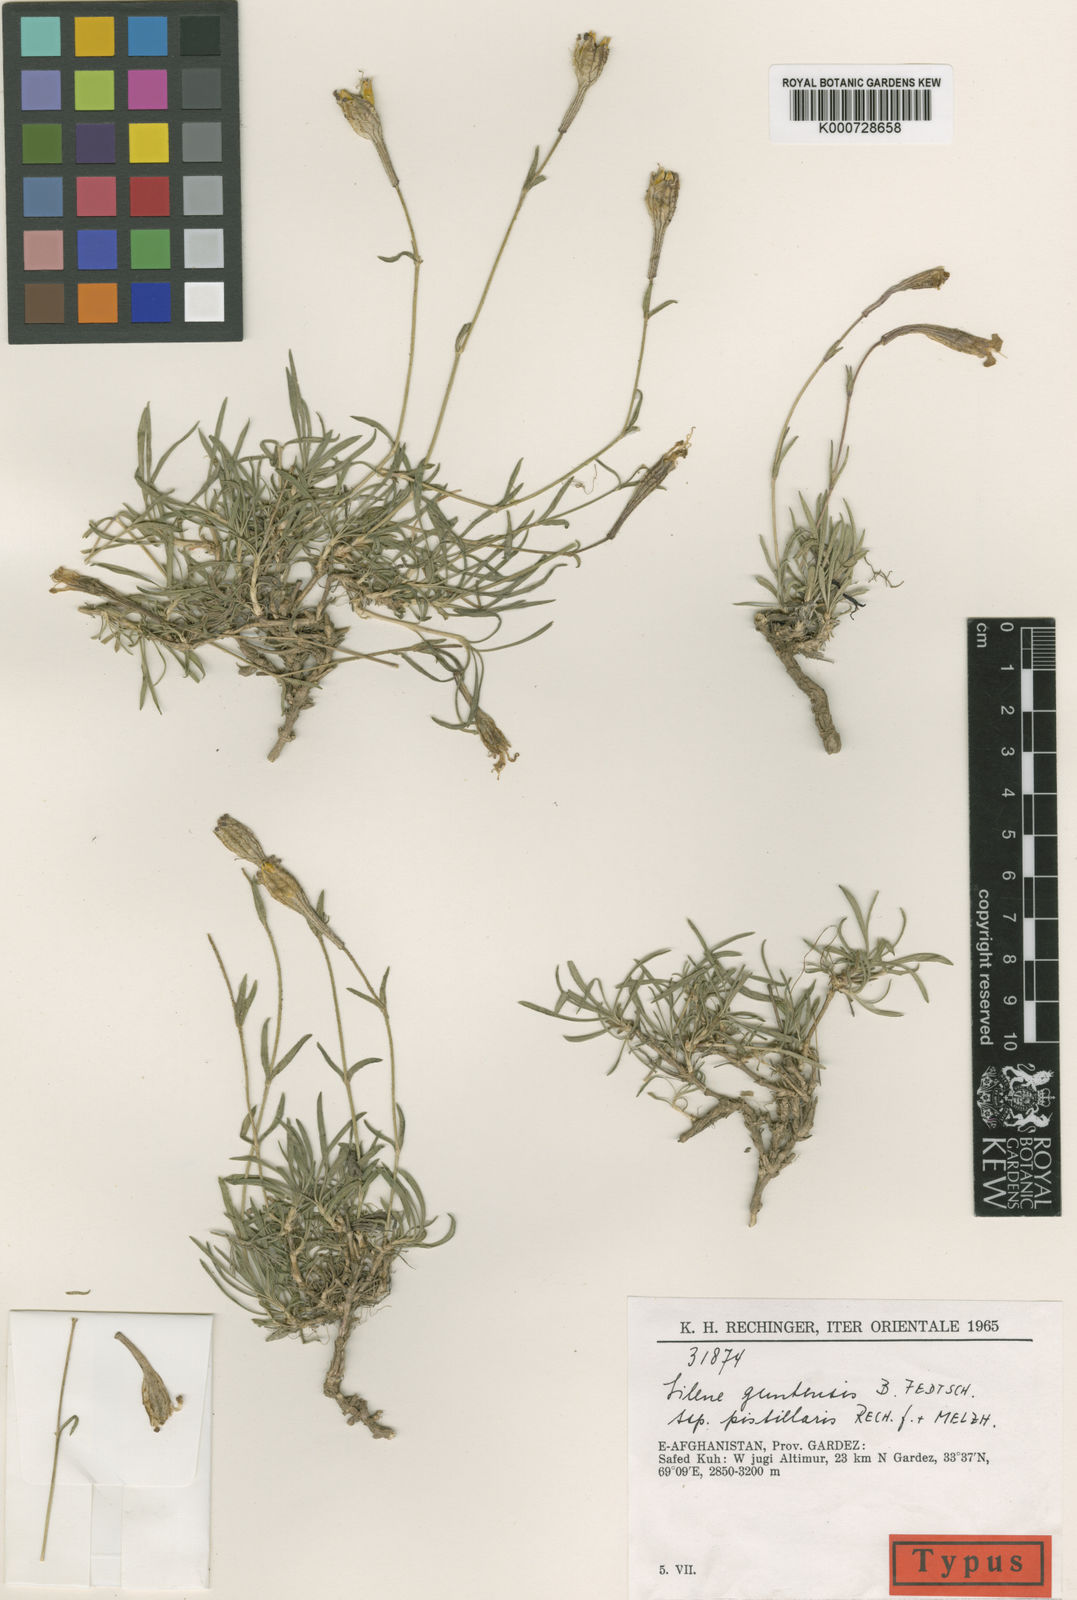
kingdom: Plantae
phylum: Tracheophyta
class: Magnoliopsida
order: Caryophyllales
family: Caryophyllaceae
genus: Silene
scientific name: Silene guntensis
